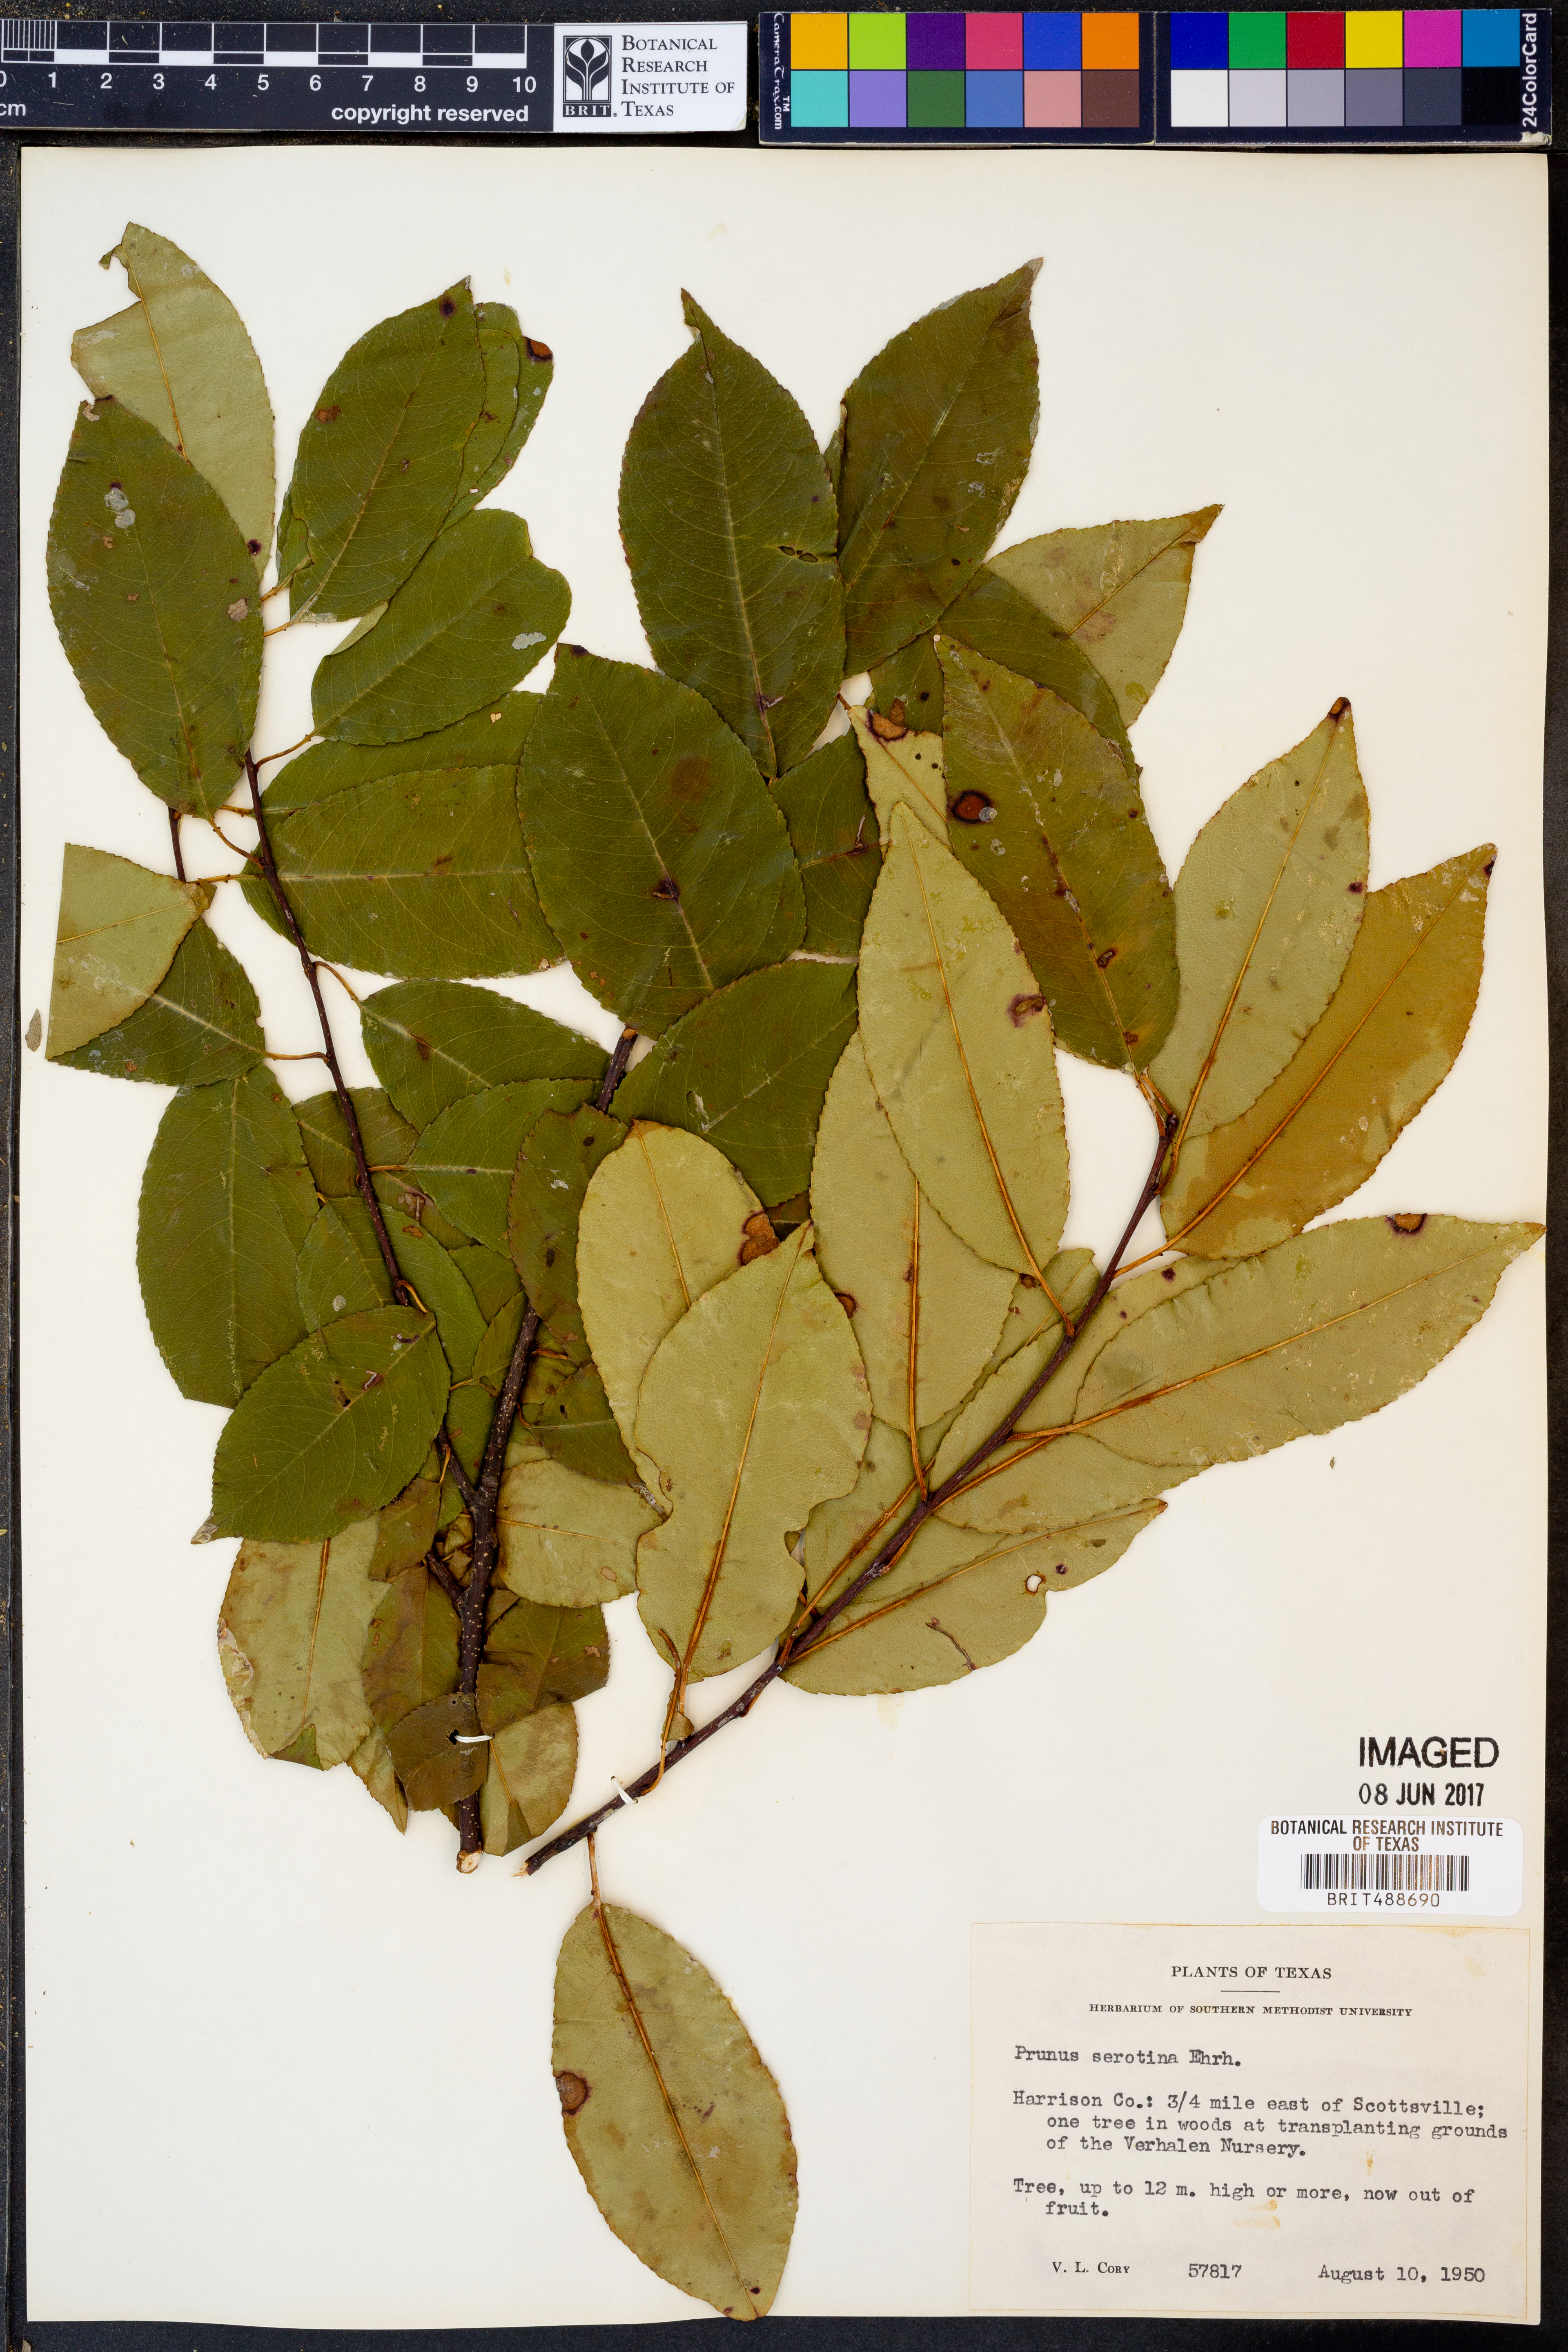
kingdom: Plantae
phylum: Tracheophyta
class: Magnoliopsida
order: Rosales
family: Rosaceae
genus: Prunus
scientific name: Prunus serotina
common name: Black cherry
